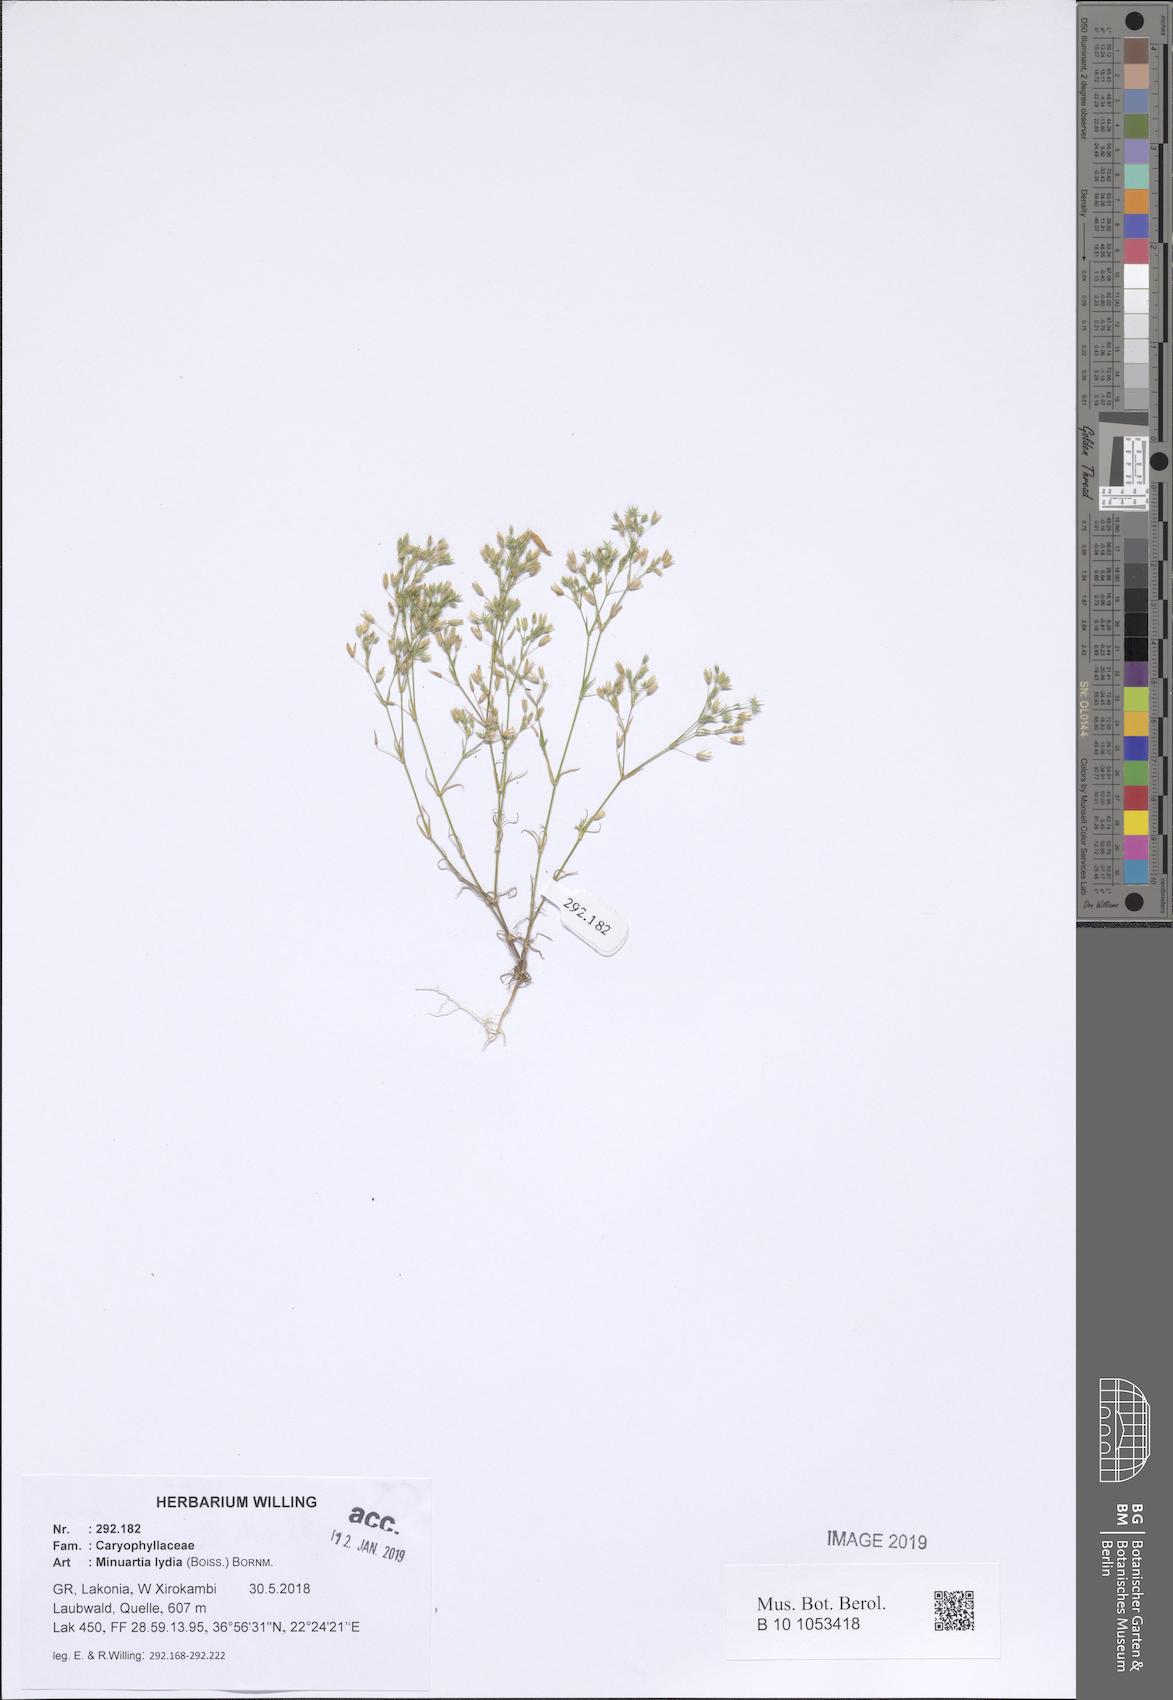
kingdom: Plantae
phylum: Tracheophyta
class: Magnoliopsida
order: Caryophyllales
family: Caryophyllaceae
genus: Sabulina
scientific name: Sabulina mesogitana
